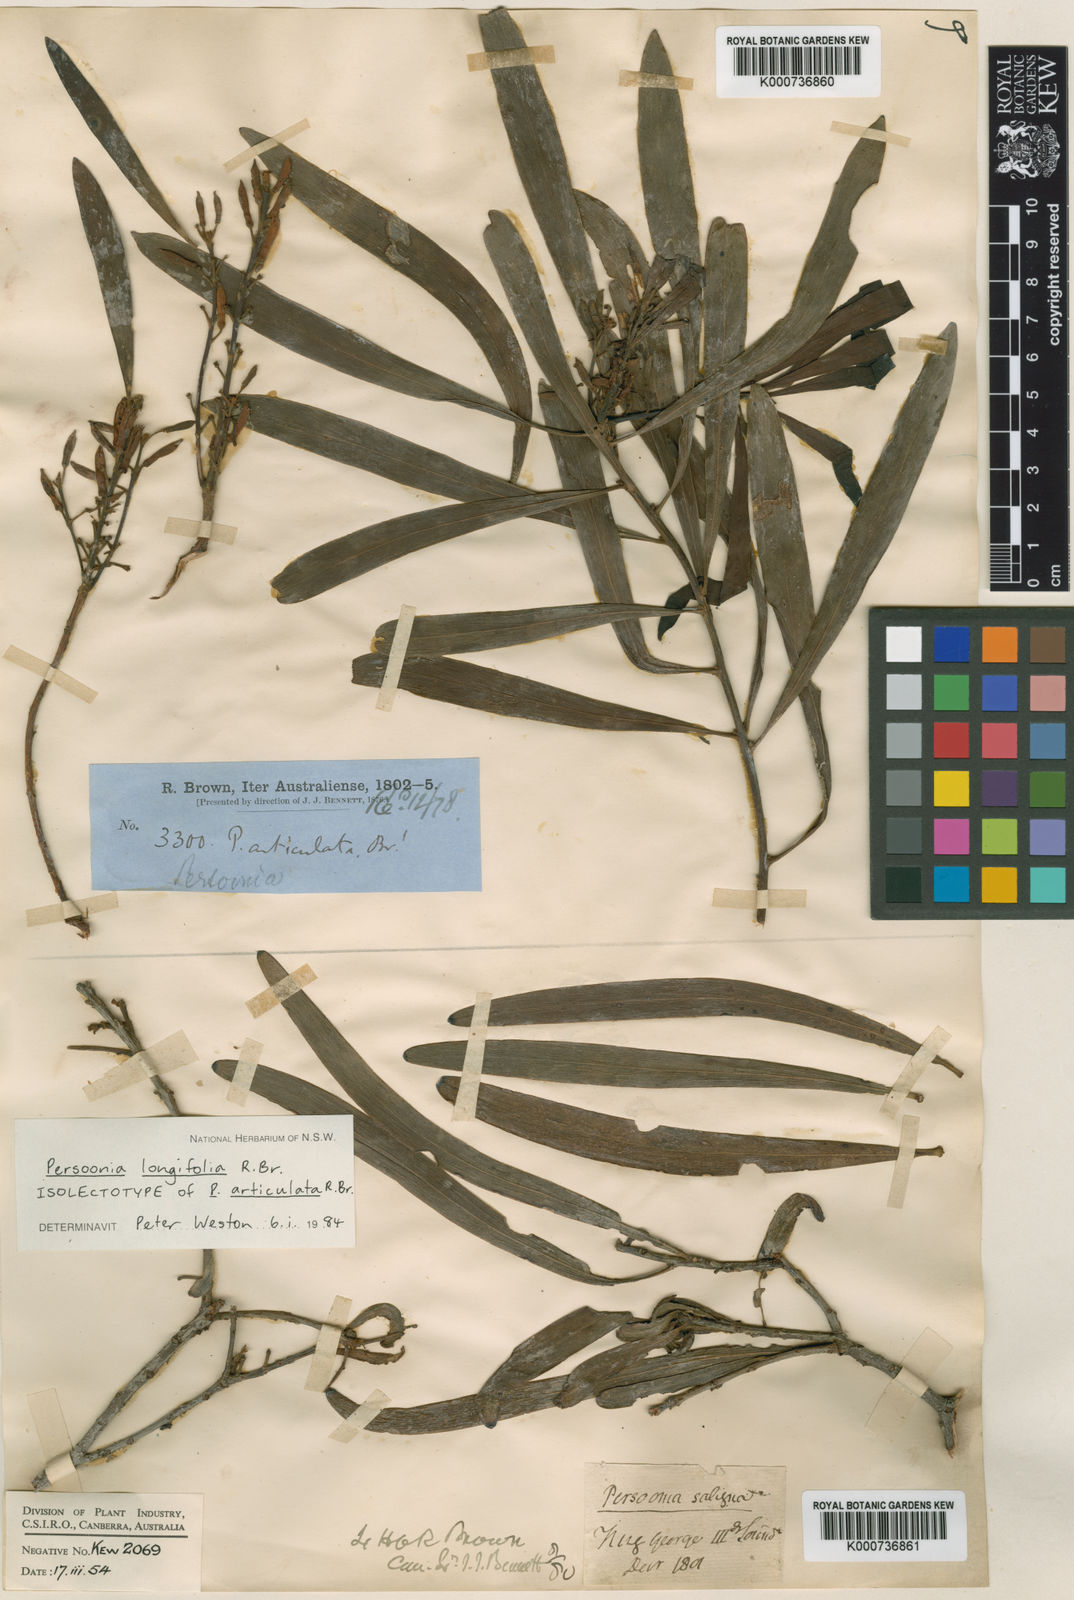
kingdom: Plantae
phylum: Tracheophyta
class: Magnoliopsida
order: Proteales
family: Proteaceae
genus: Persoonia
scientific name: Persoonia longifolia
